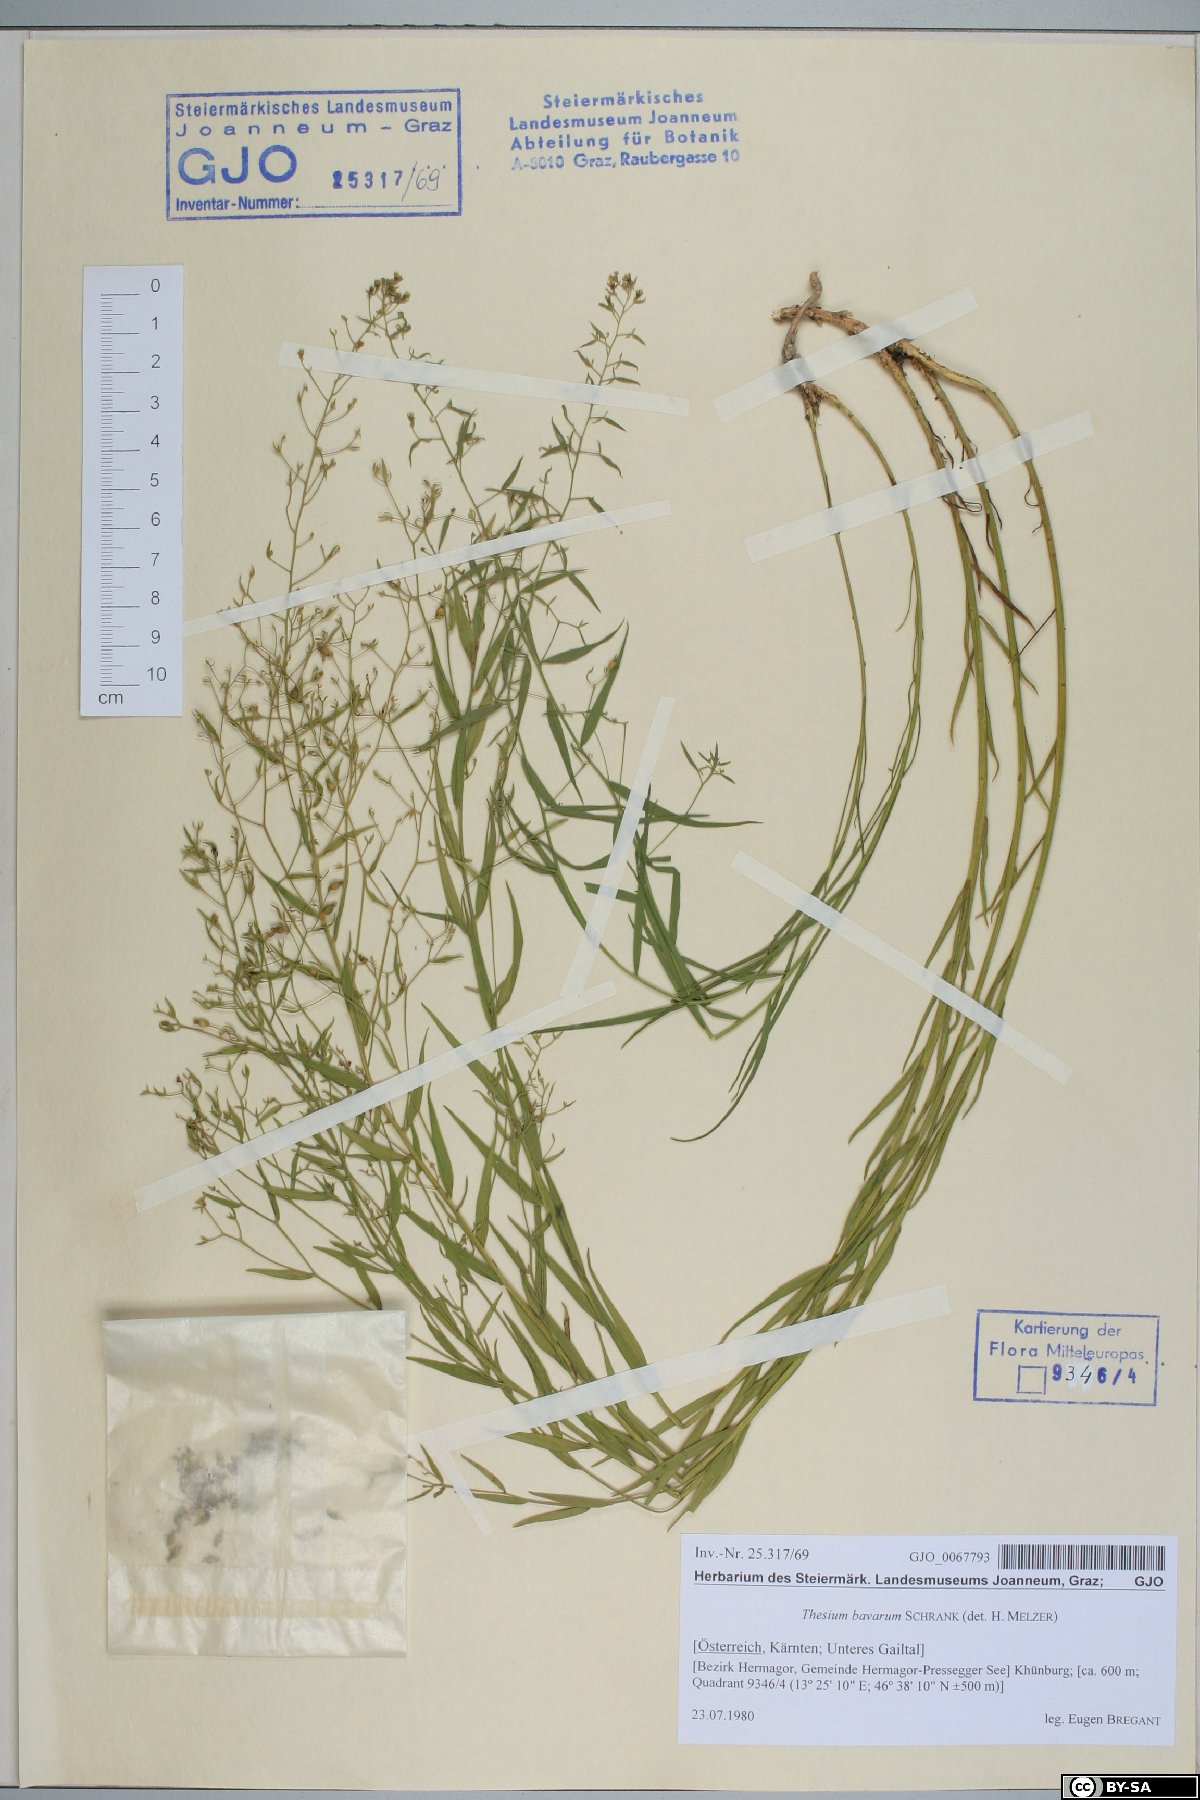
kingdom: Plantae
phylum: Tracheophyta
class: Magnoliopsida
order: Santalales
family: Thesiaceae
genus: Thesium
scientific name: Thesium bavarum
